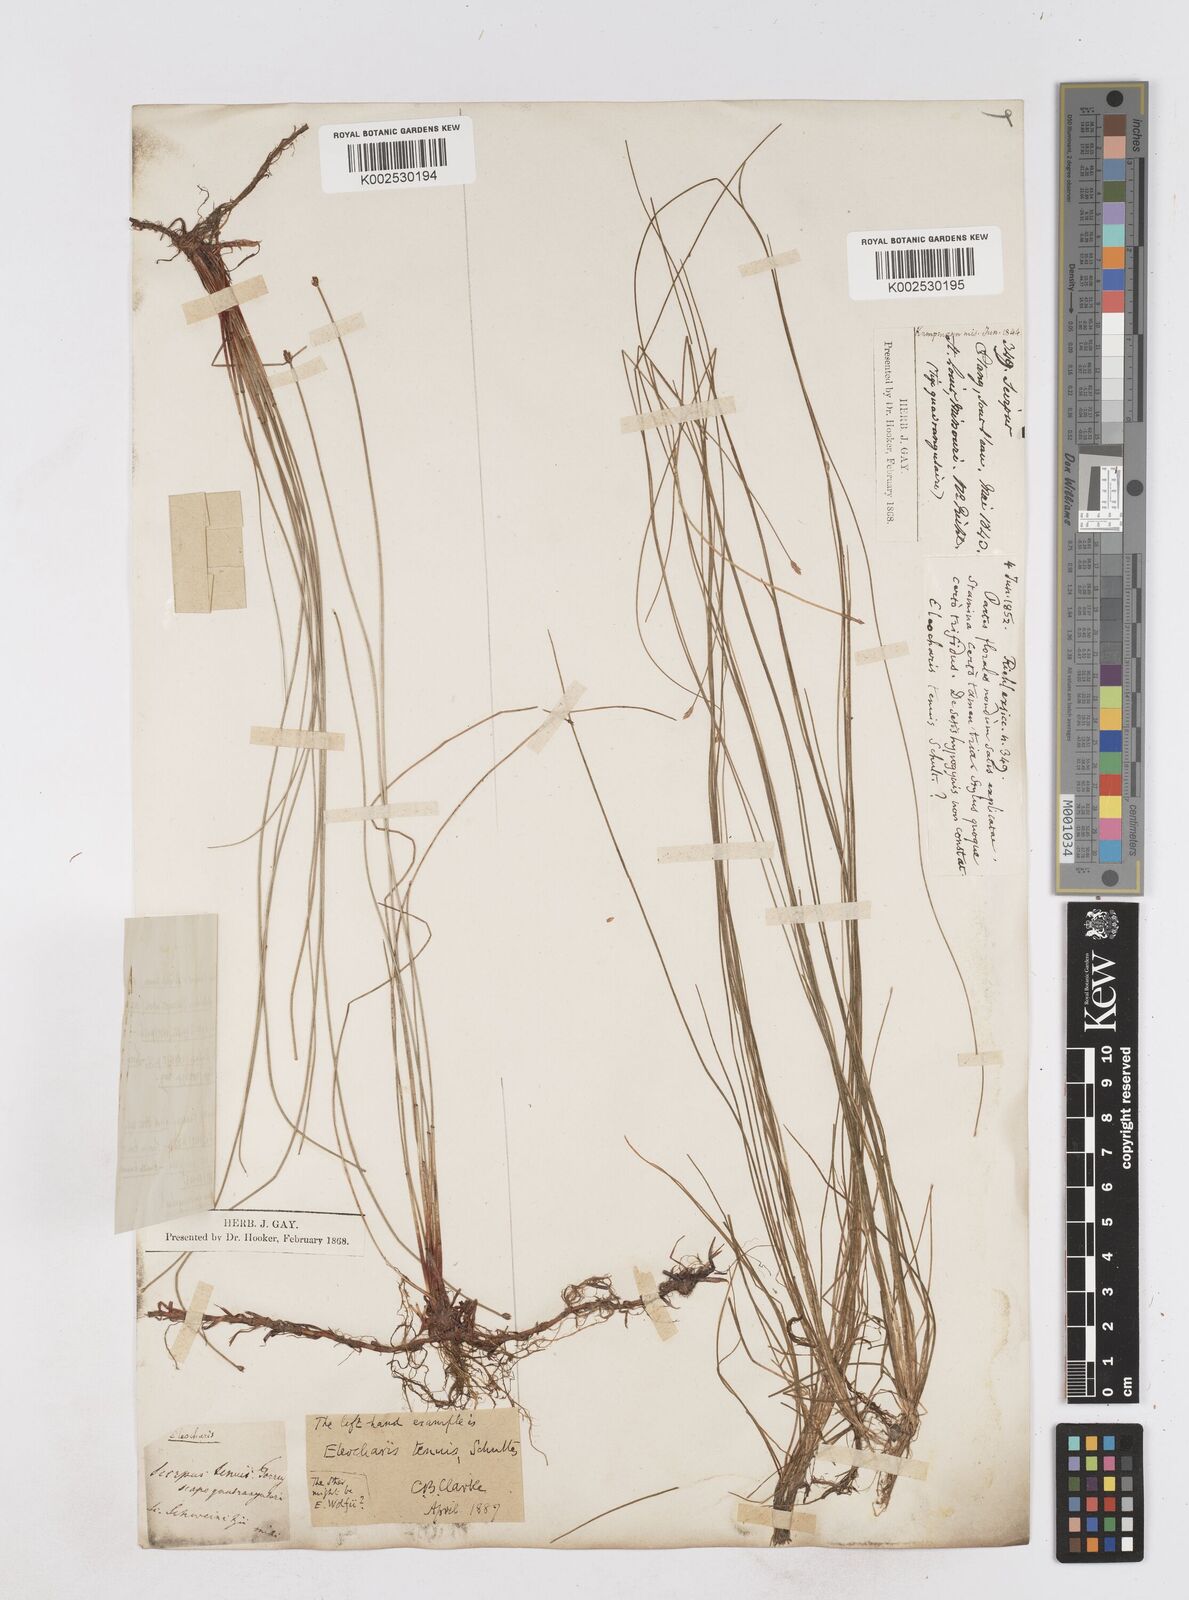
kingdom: Plantae
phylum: Tracheophyta
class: Liliopsida
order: Poales
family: Cyperaceae
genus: Eleocharis
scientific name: Eleocharis tenuis
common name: Dog's hair
